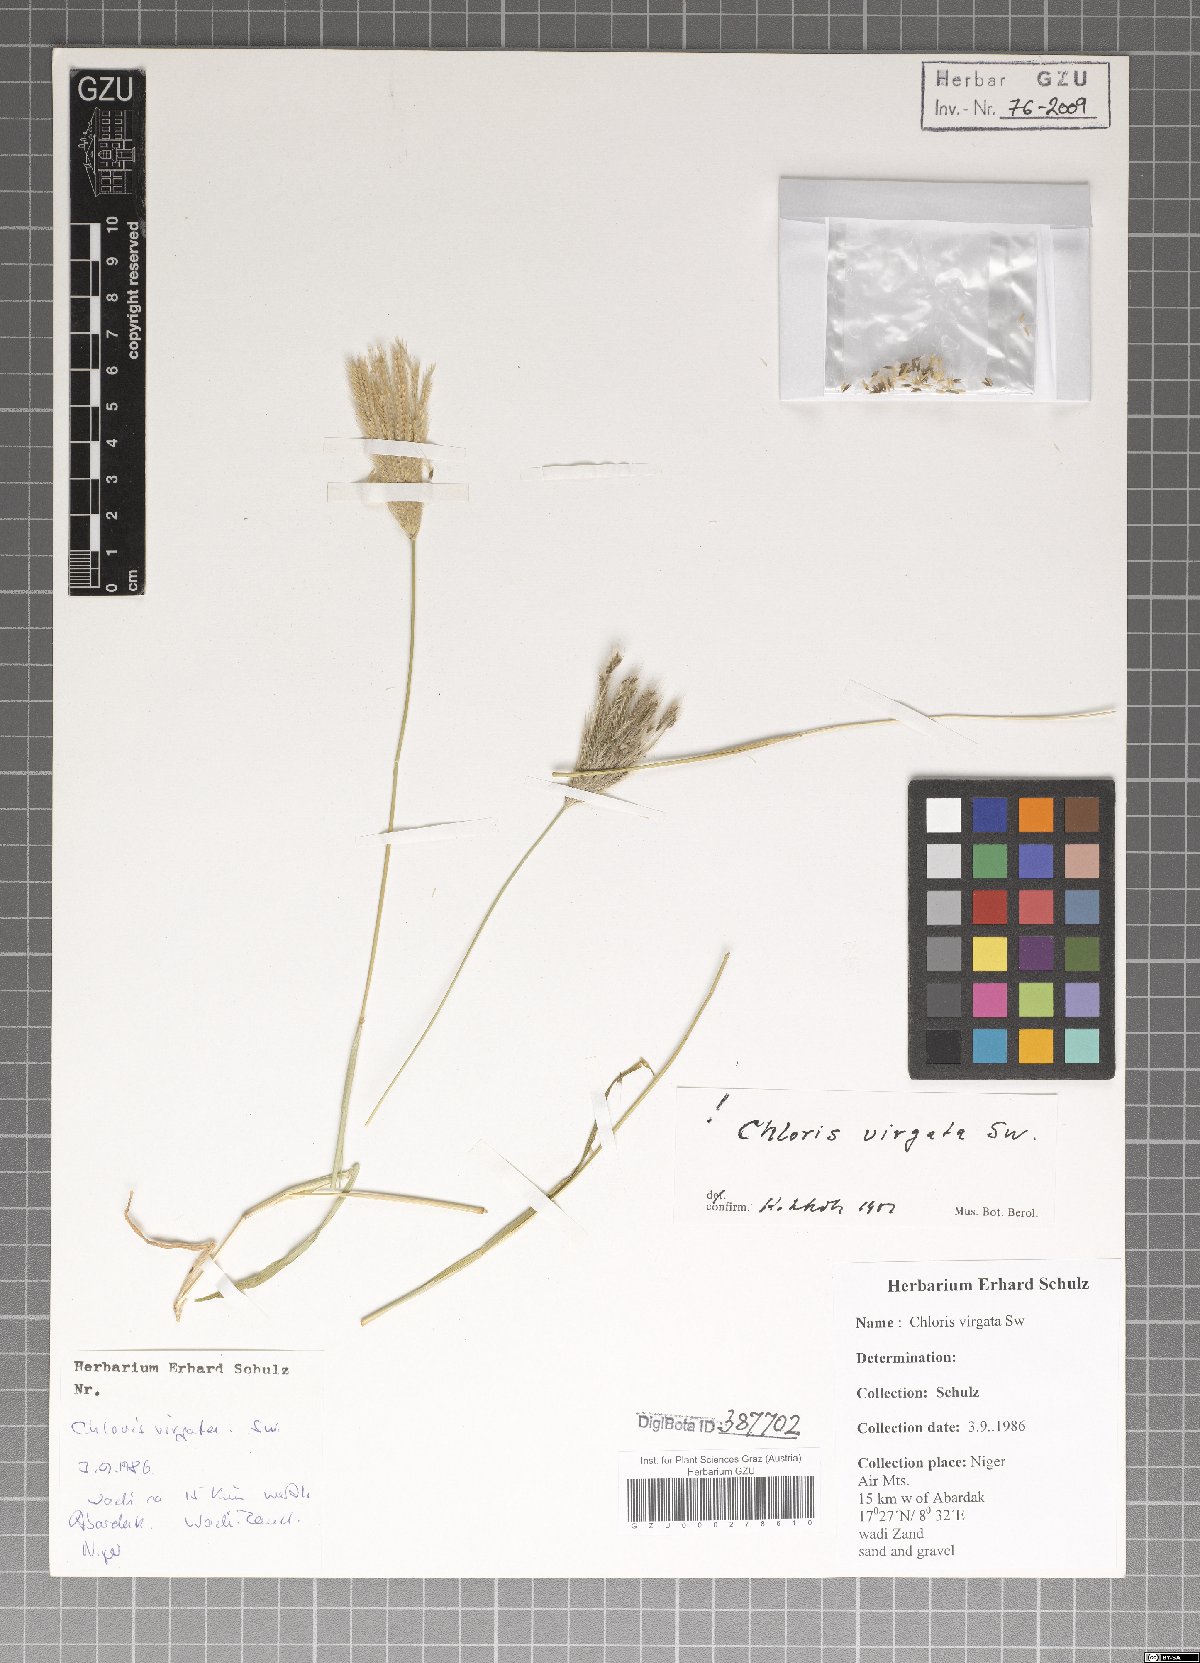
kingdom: Plantae
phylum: Tracheophyta
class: Liliopsida
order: Poales
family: Poaceae
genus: Chloris
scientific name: Chloris virgata
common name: Feathery rhodes-grass
